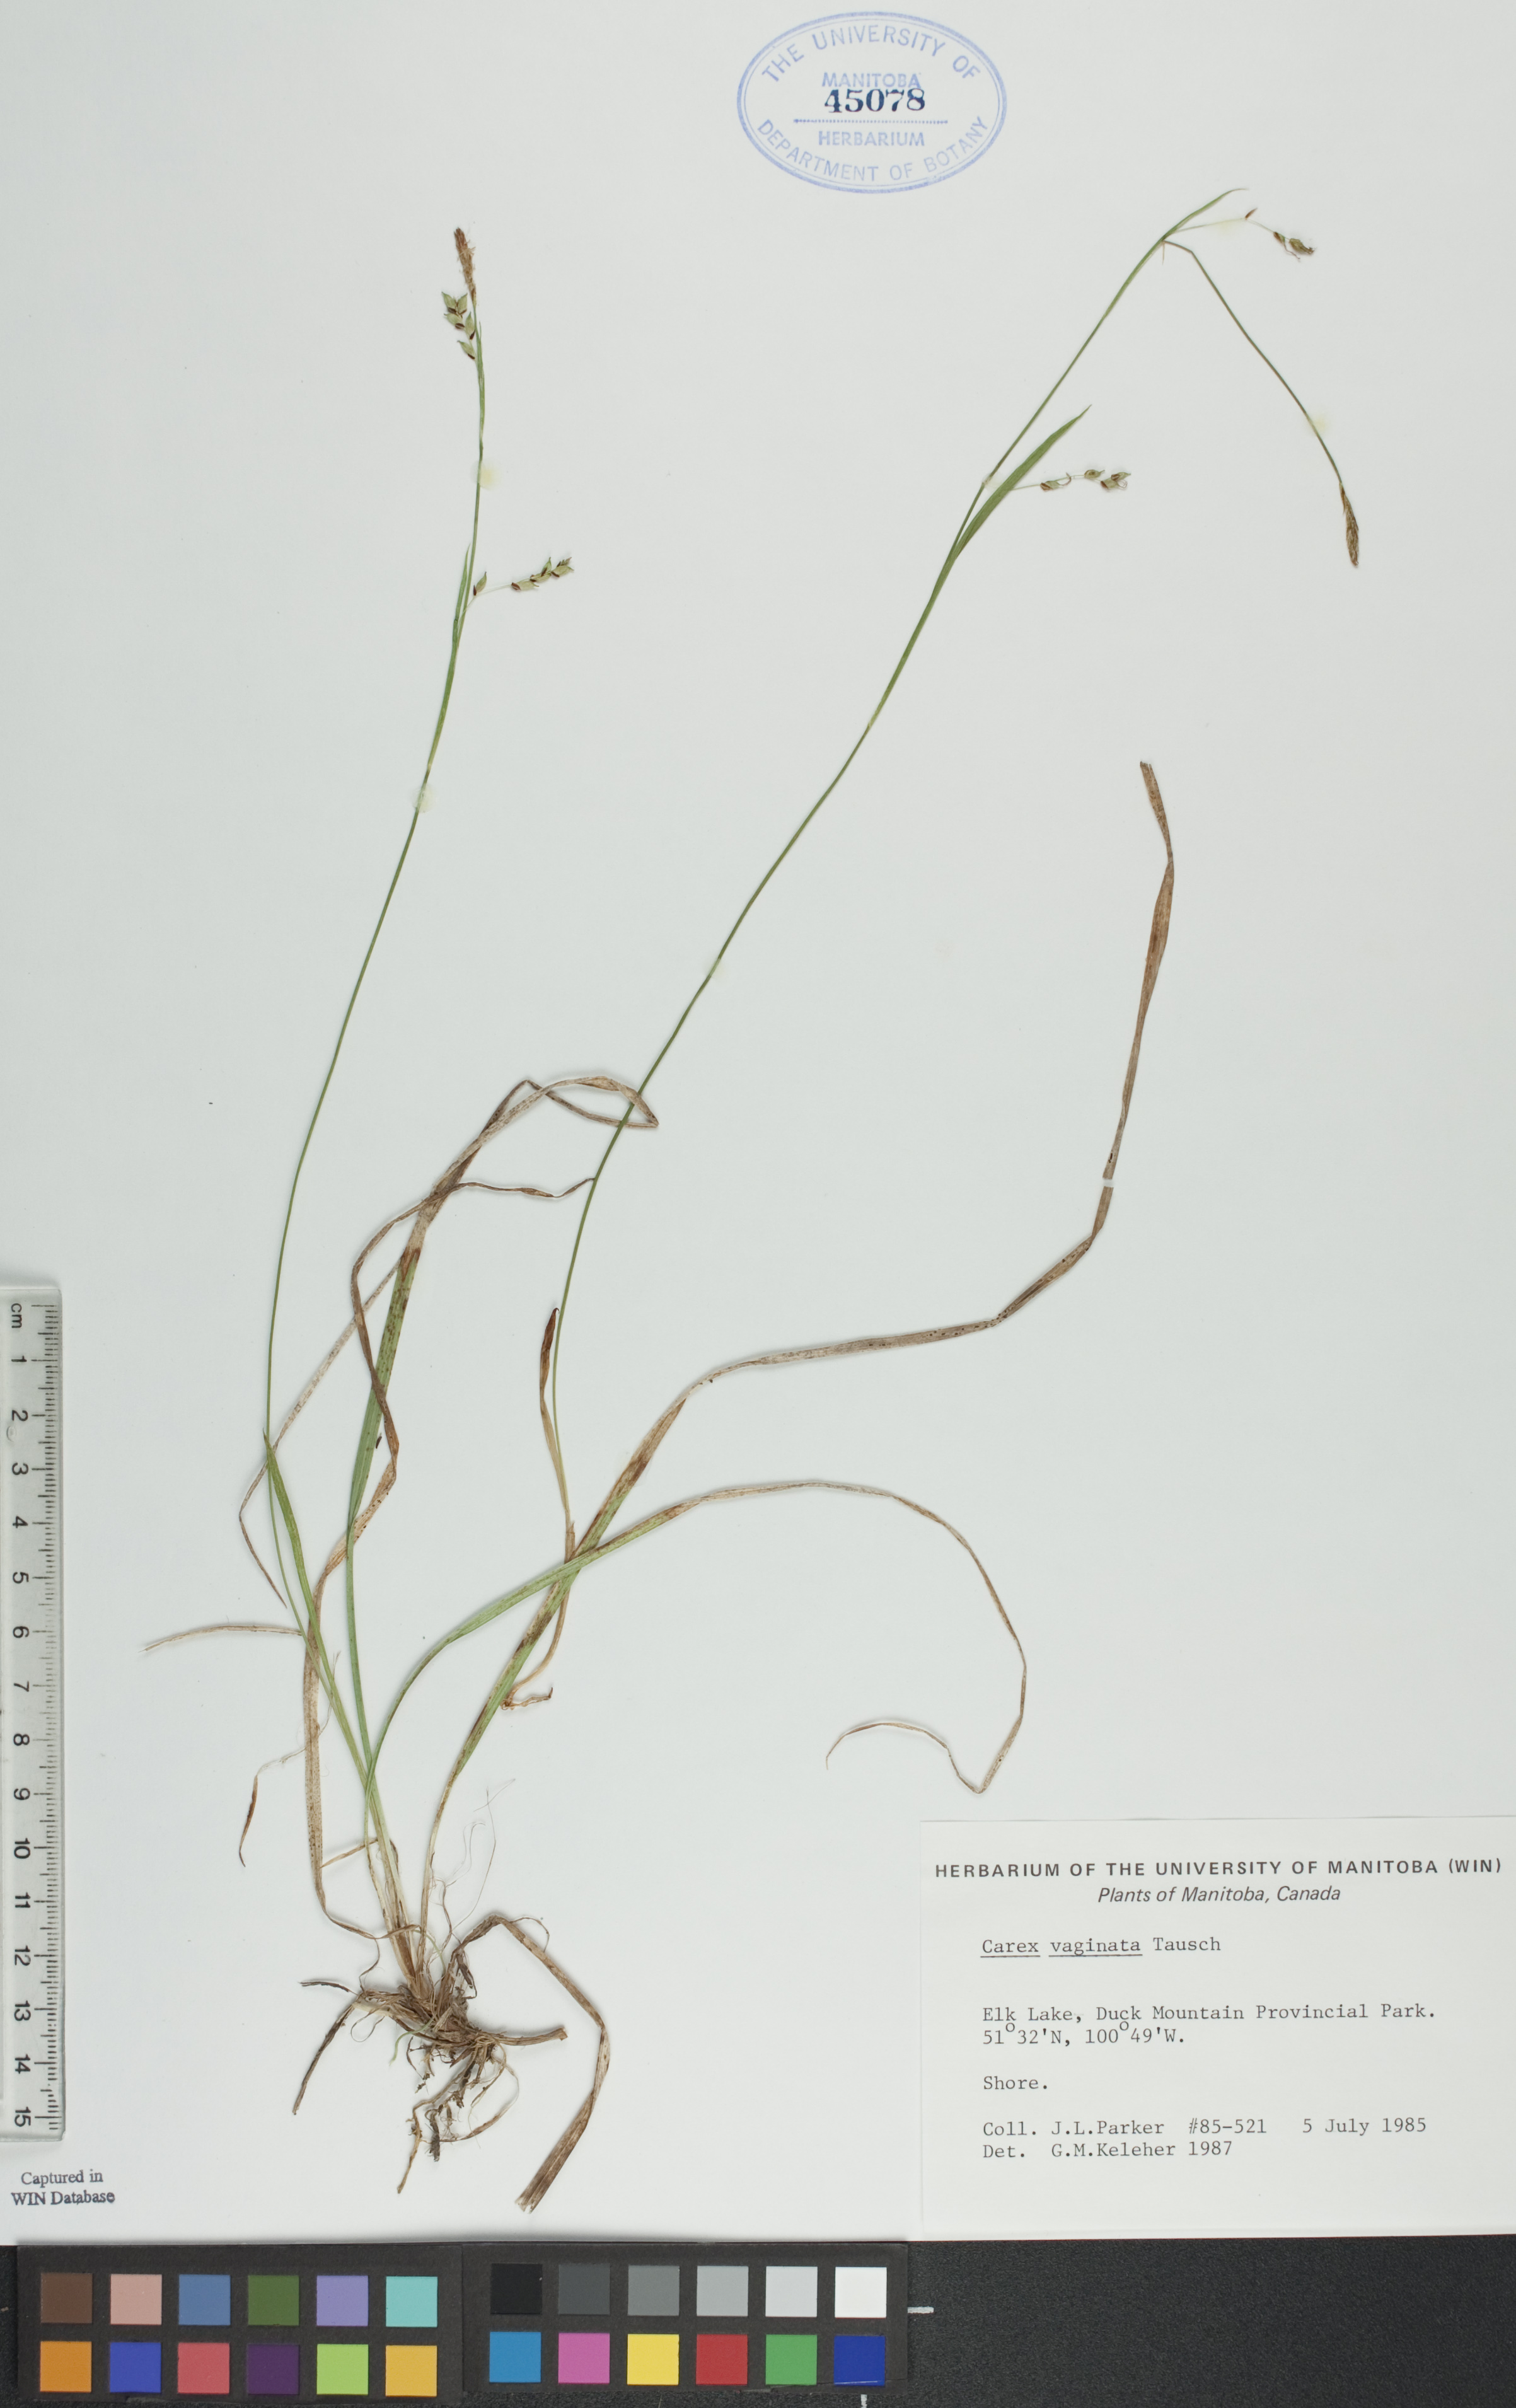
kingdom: Plantae
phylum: Tracheophyta
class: Liliopsida
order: Poales
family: Cyperaceae
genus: Carex
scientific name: Carex vaginata
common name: Sheathed sedge
